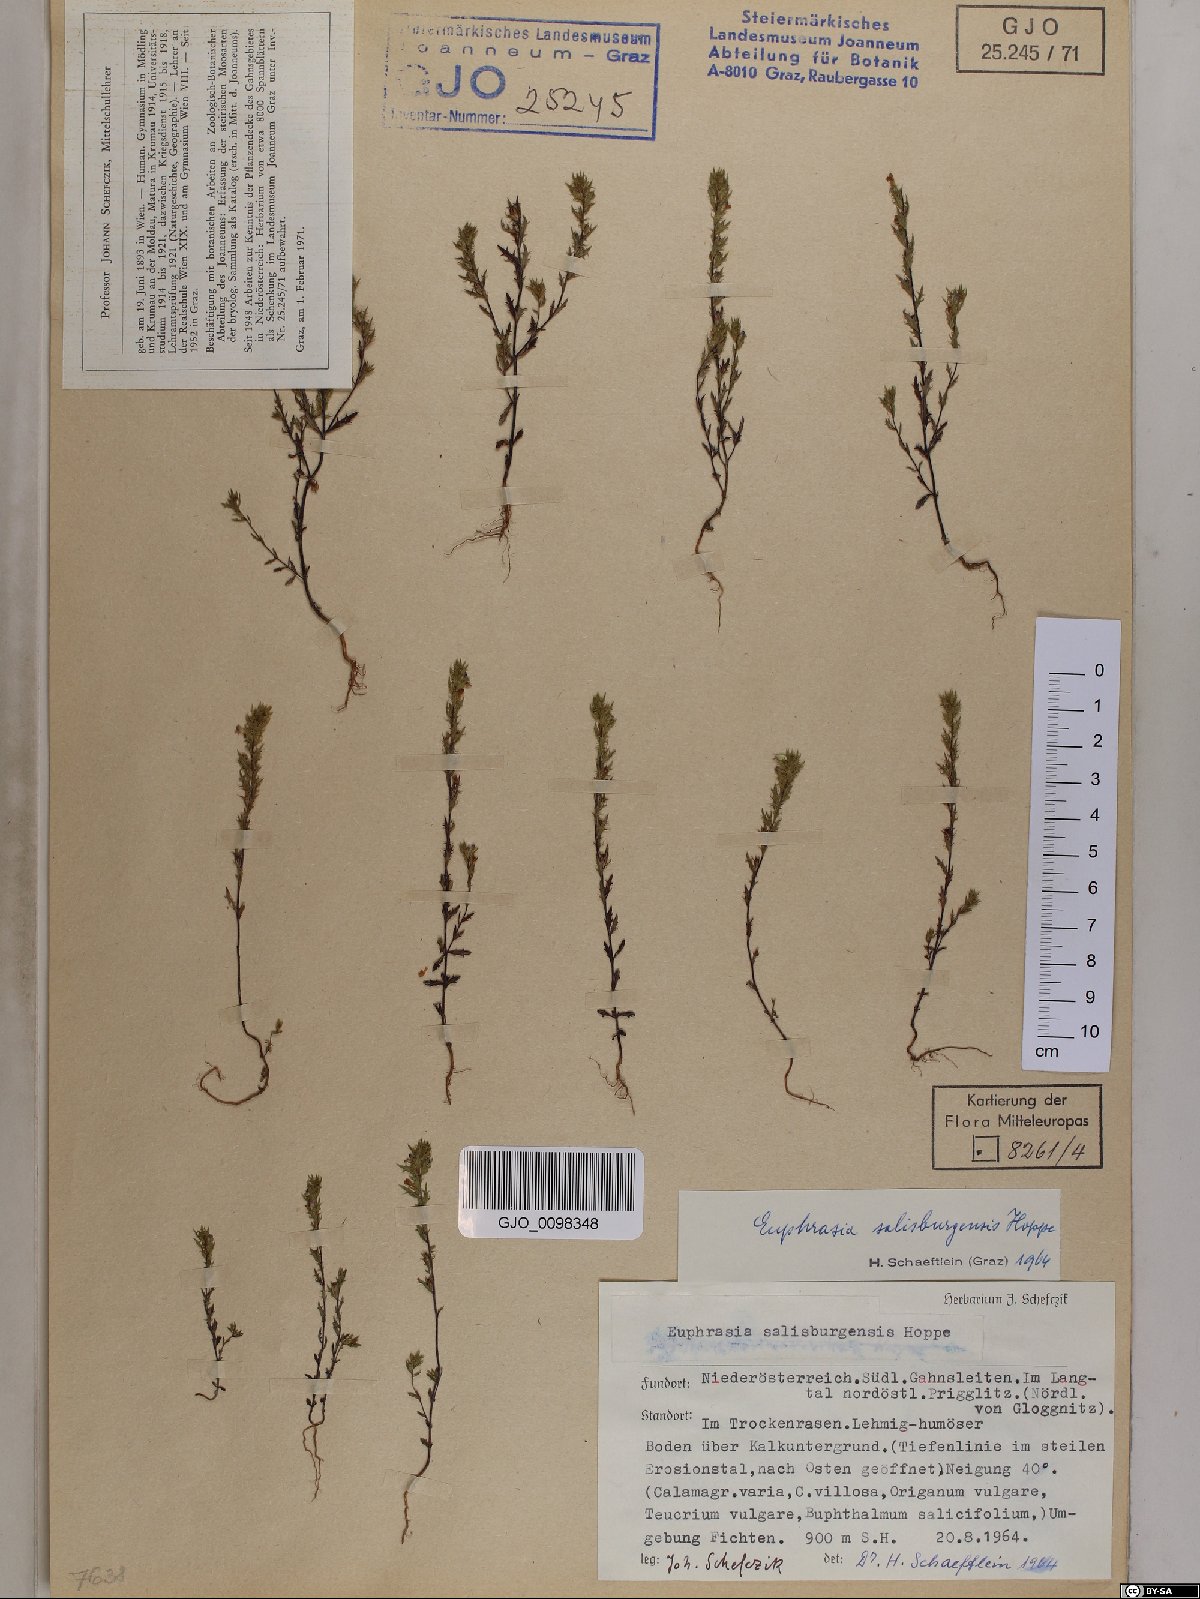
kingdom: Plantae
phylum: Tracheophyta
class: Magnoliopsida
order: Lamiales
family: Orobanchaceae
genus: Euphrasia
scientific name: Euphrasia salisburgensis
